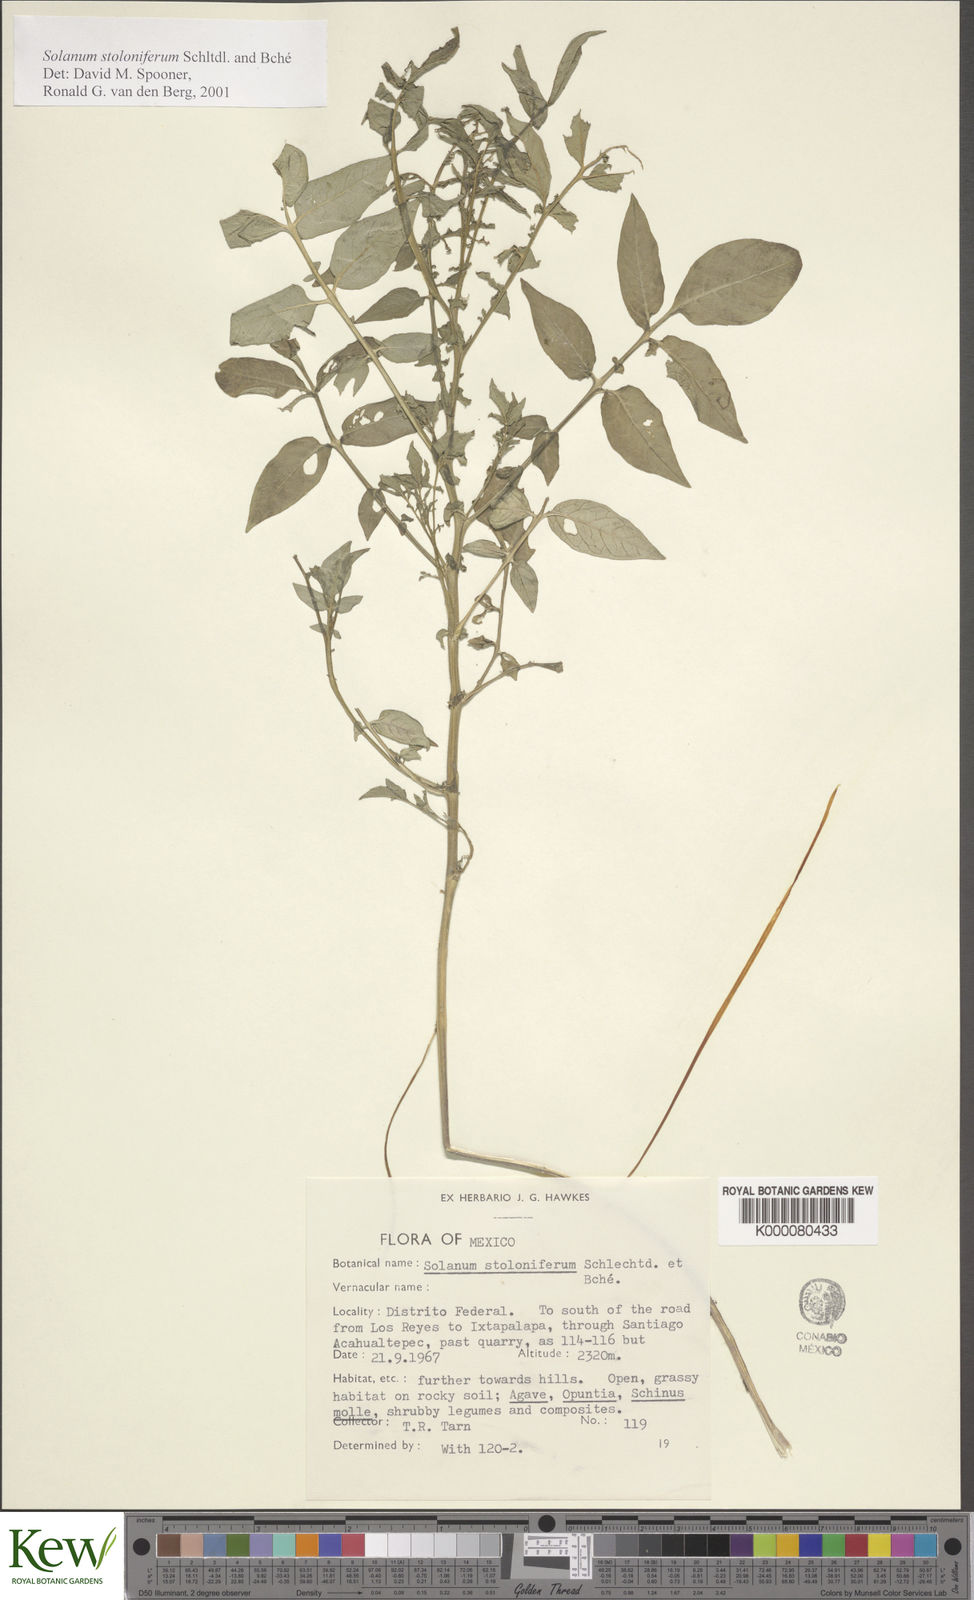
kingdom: Plantae
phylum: Tracheophyta
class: Magnoliopsida
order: Solanales
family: Solanaceae
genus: Solanum
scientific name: Solanum stoloniferum
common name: Fendler's nighshade
